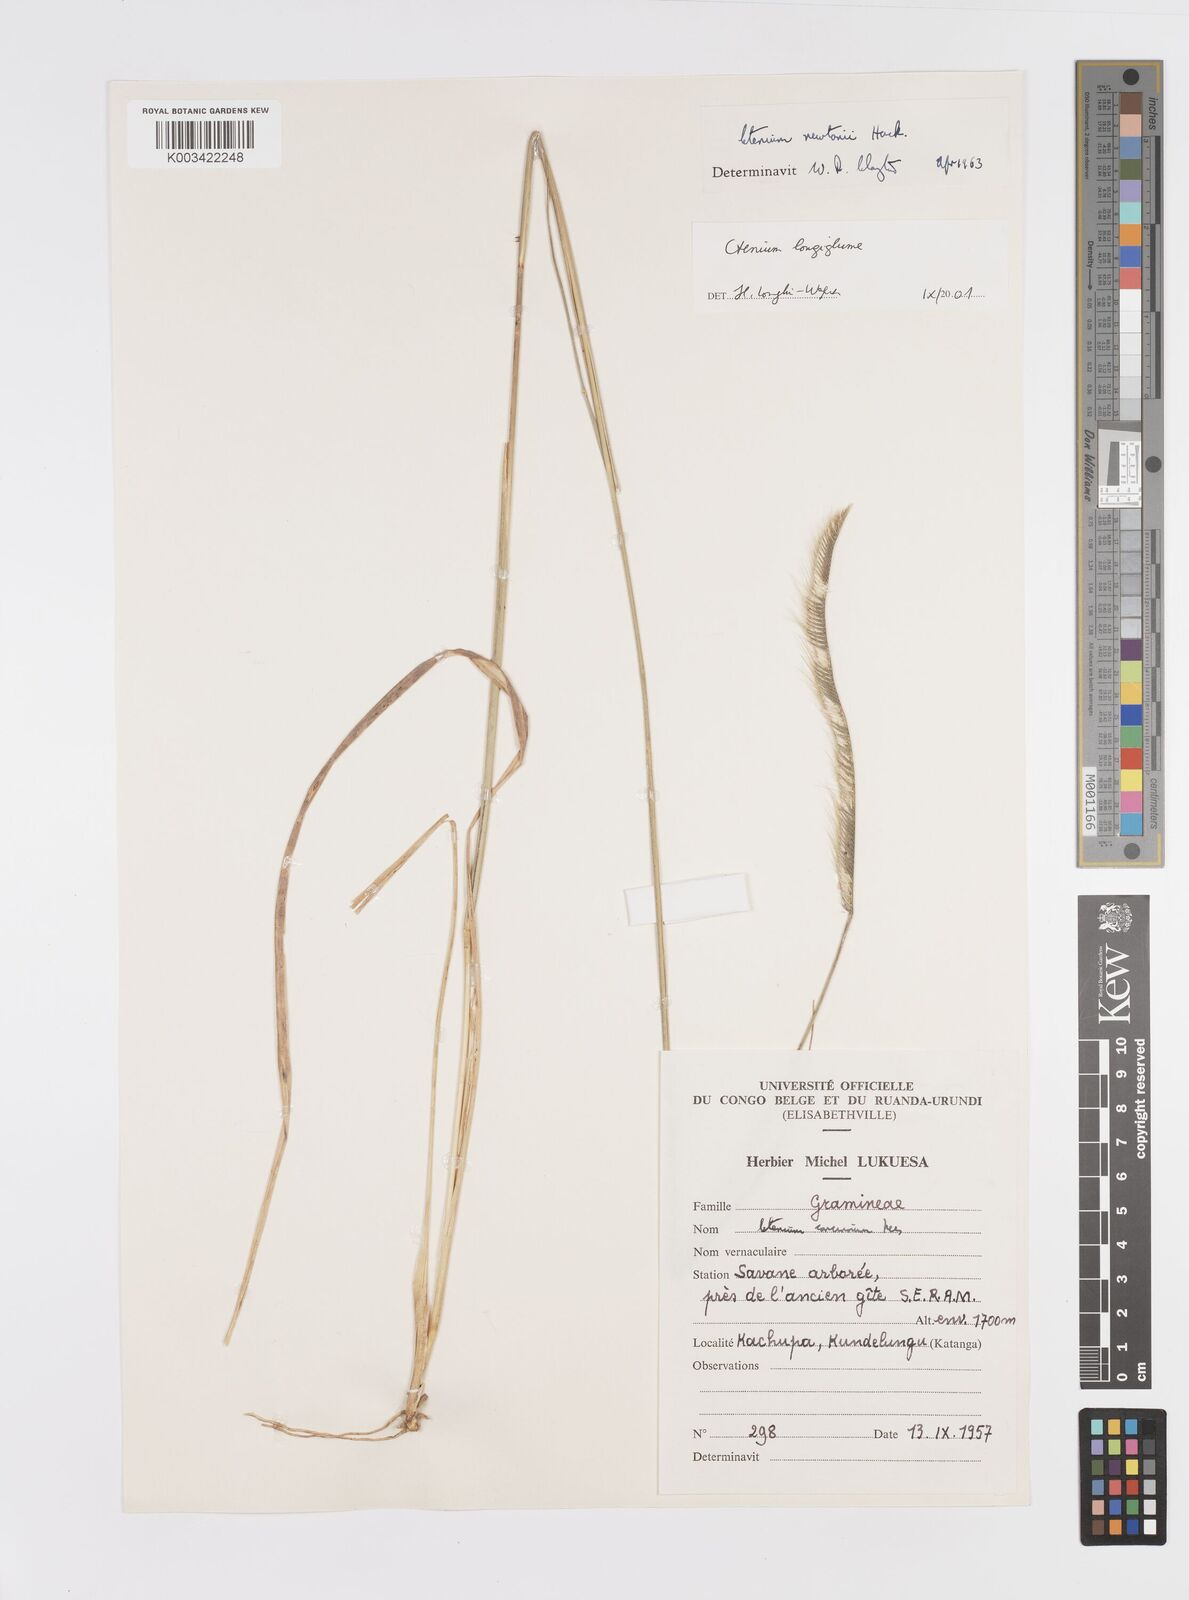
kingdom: Plantae
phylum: Tracheophyta
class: Liliopsida
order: Poales
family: Poaceae
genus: Ctenium
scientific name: Ctenium longiglume
